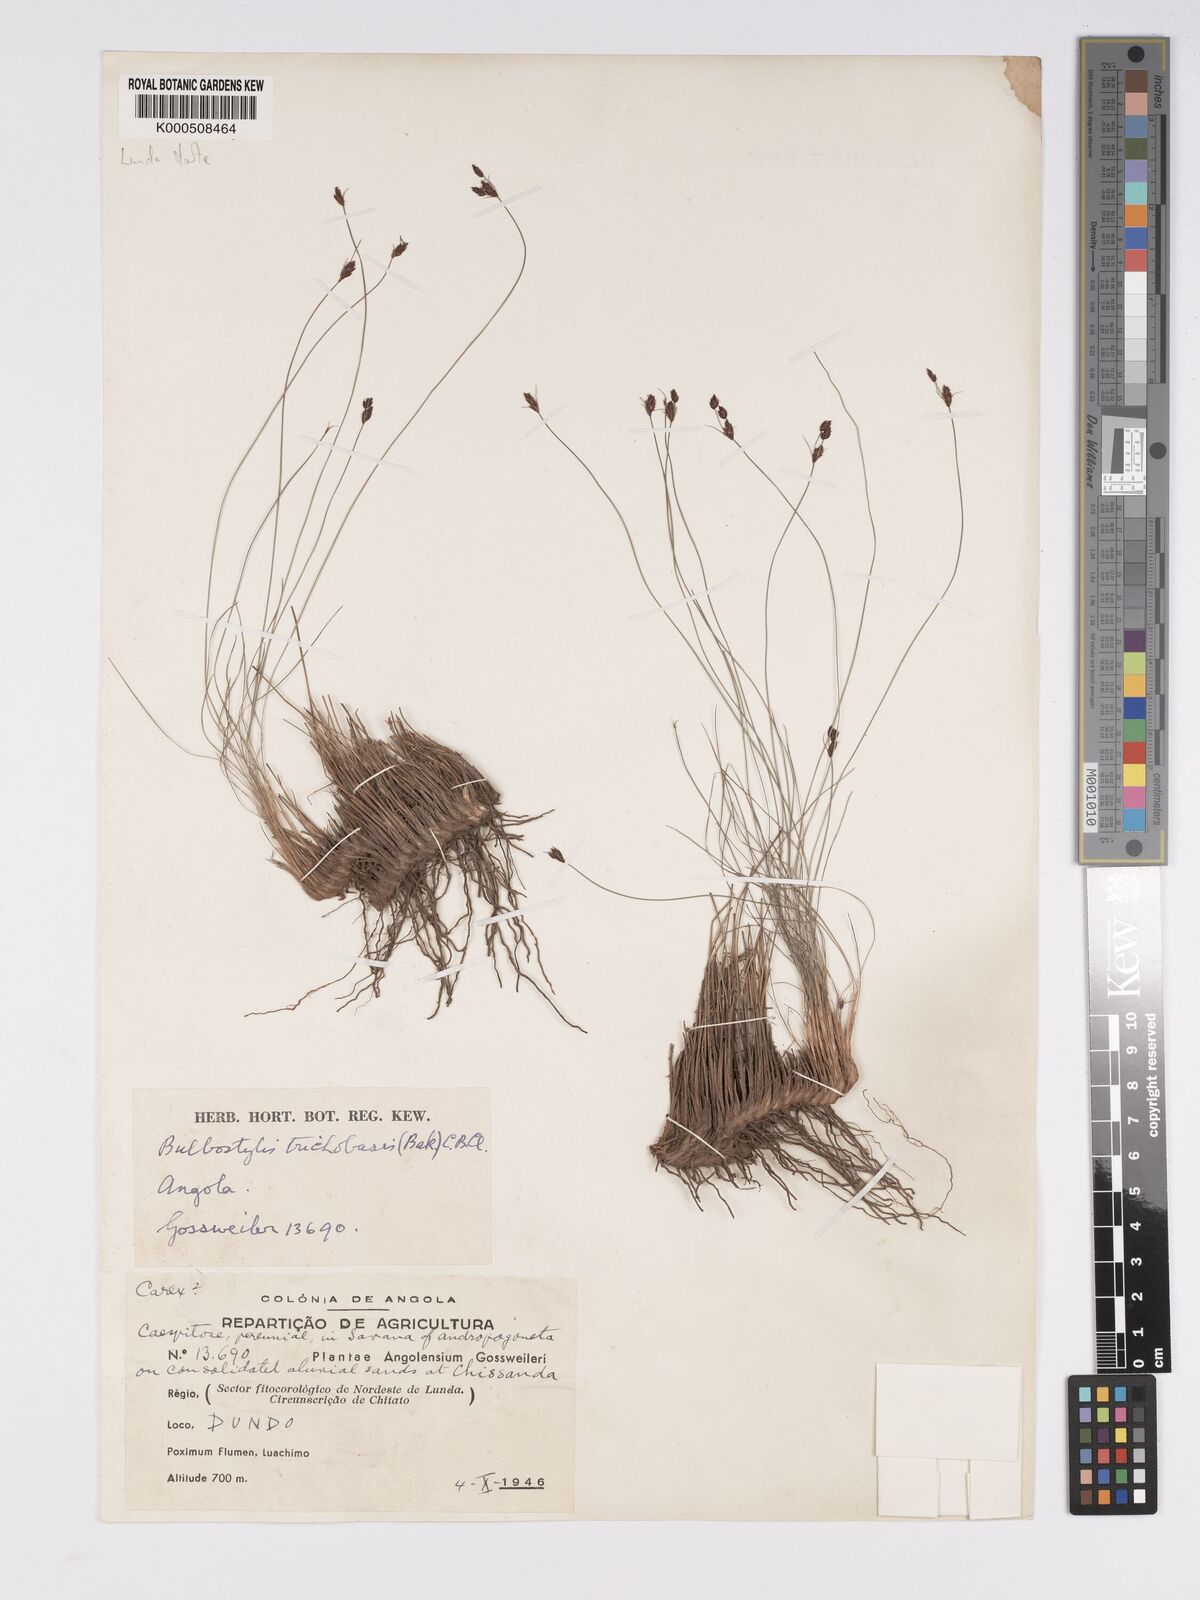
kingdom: Plantae
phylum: Tracheophyta
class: Liliopsida
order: Poales
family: Cyperaceae
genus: Bulbostylis
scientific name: Bulbostylis trichobasis
